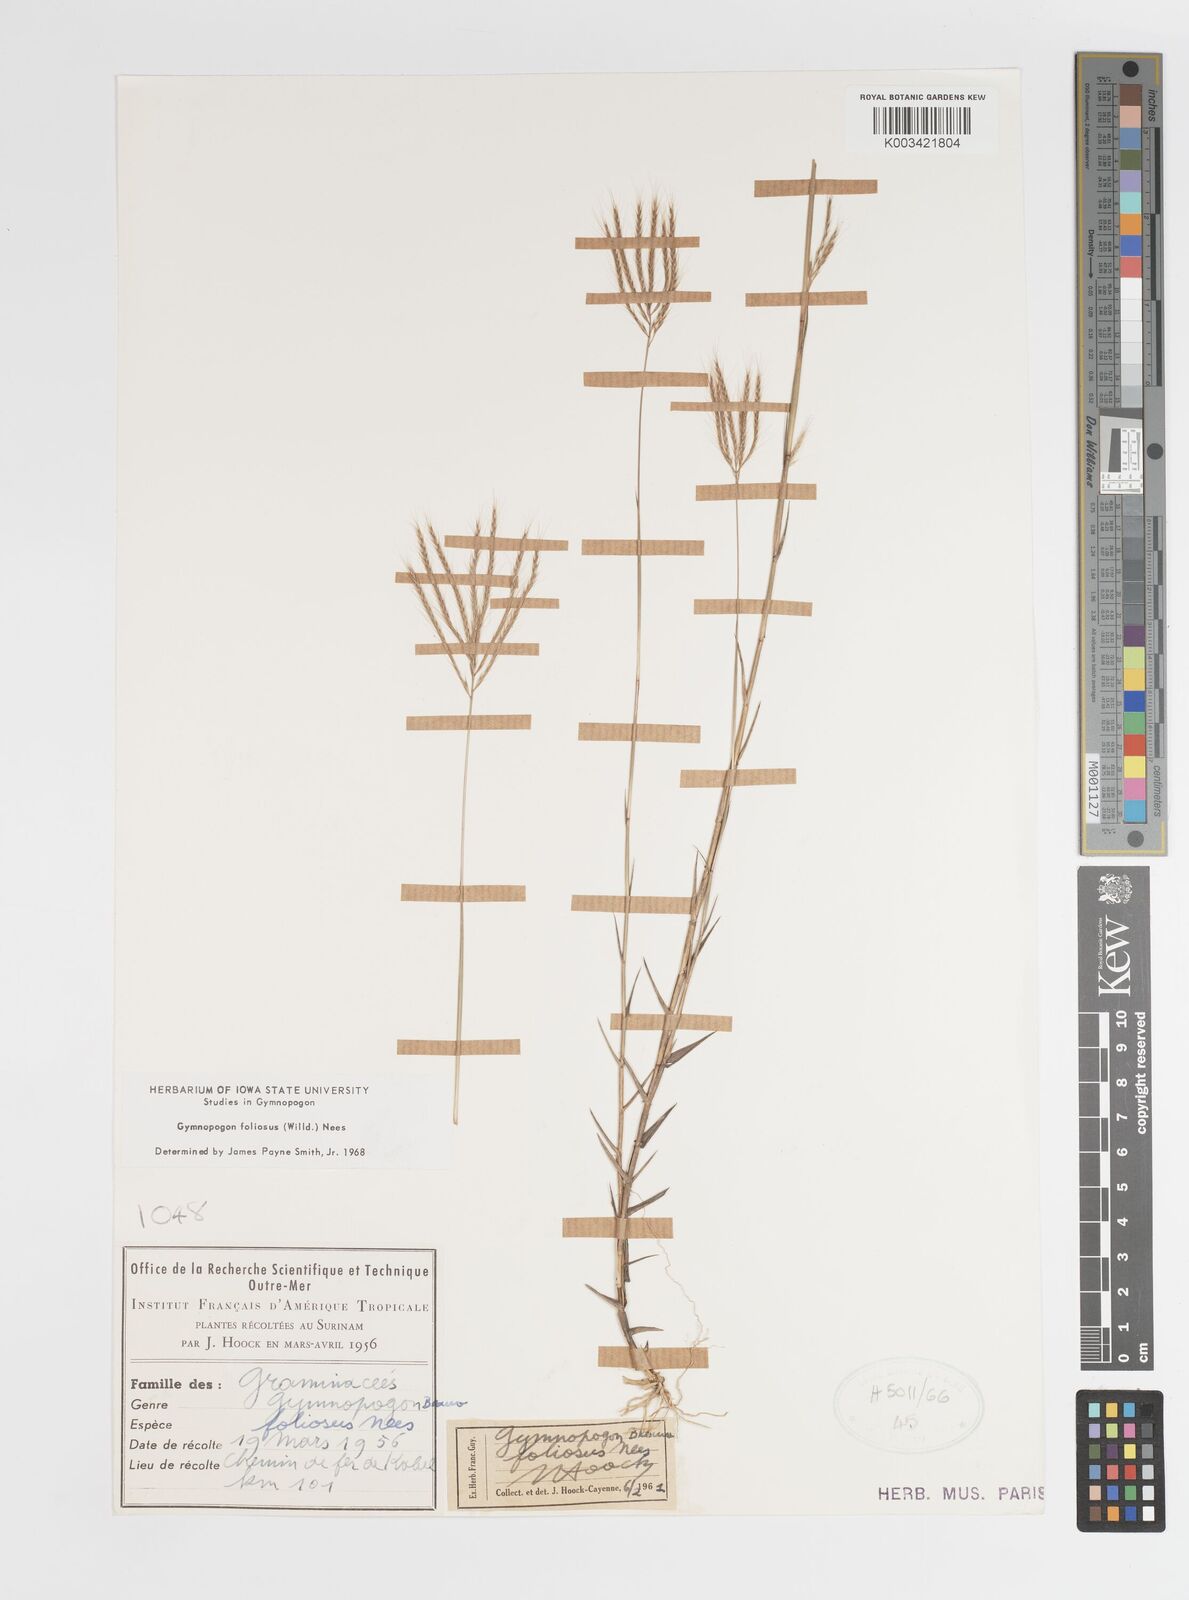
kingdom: Plantae
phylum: Tracheophyta
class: Liliopsida
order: Poales
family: Poaceae
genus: Gymnopogon
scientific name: Gymnopogon foliosus
